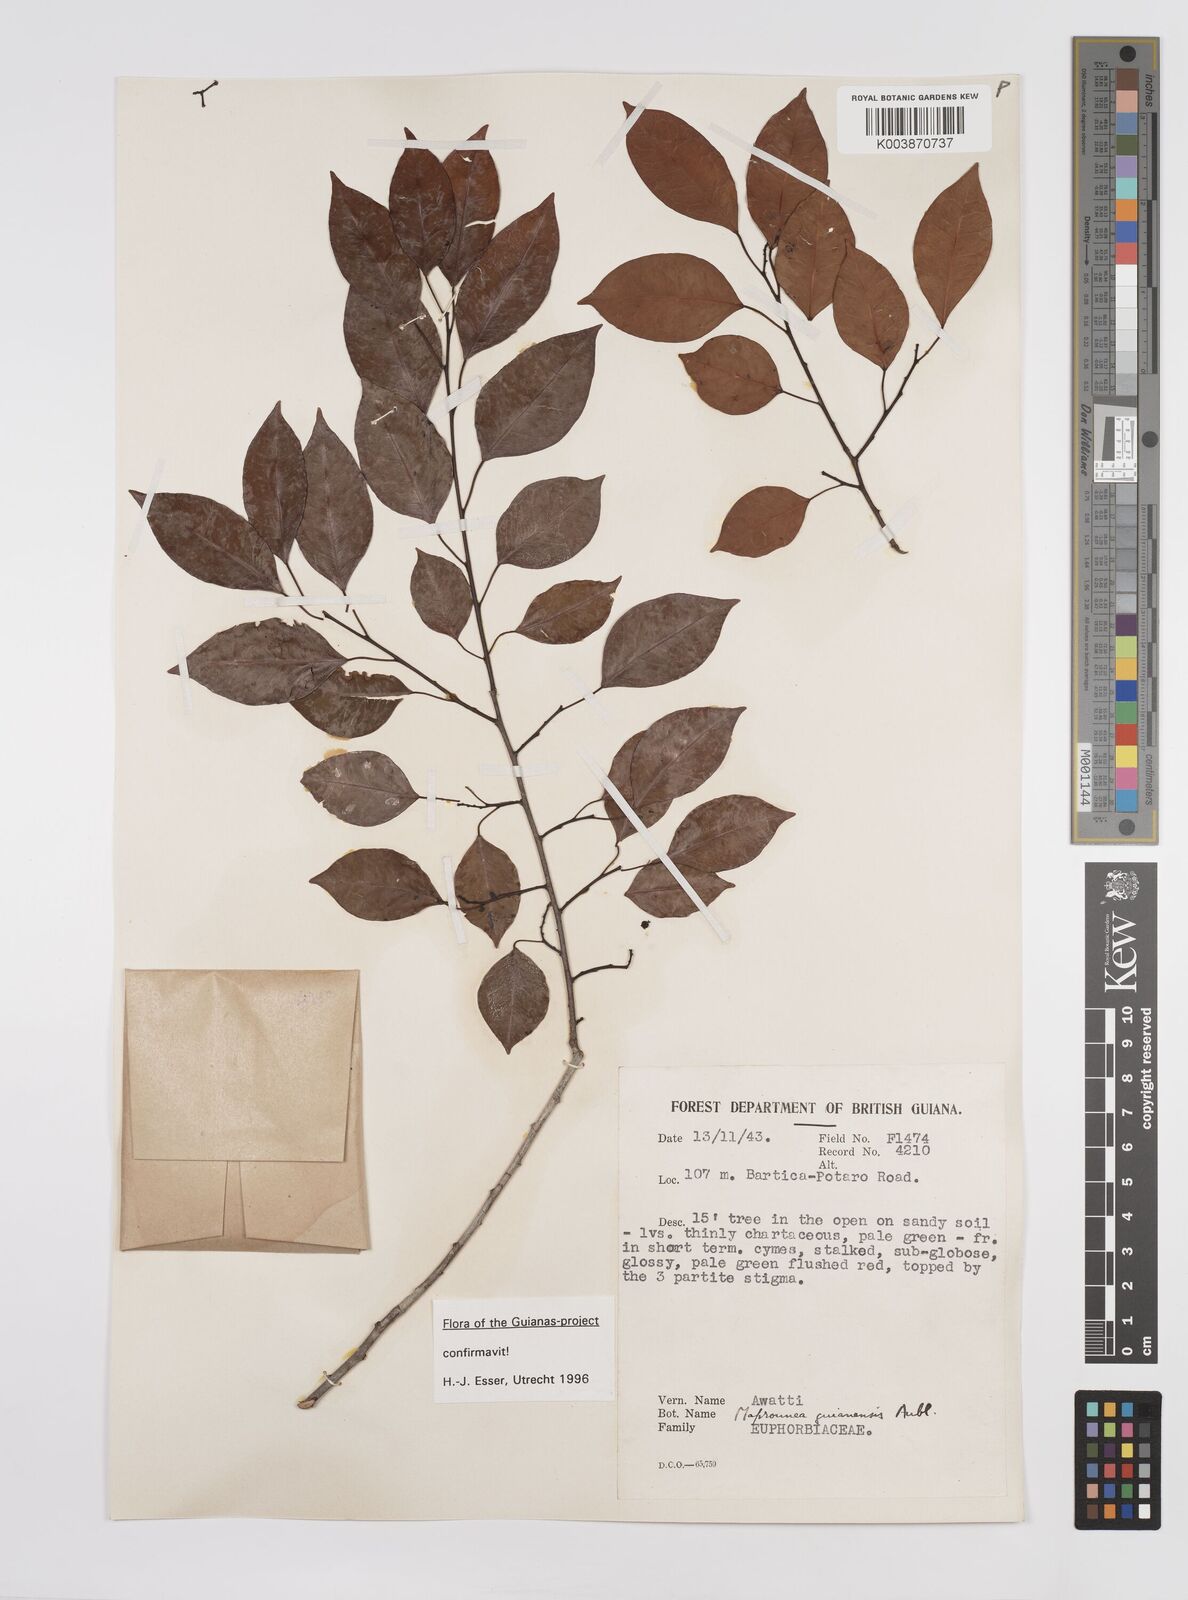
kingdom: Plantae
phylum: Tracheophyta
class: Magnoliopsida
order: Malpighiales
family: Euphorbiaceae
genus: Maprounea
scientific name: Maprounea guianensis
